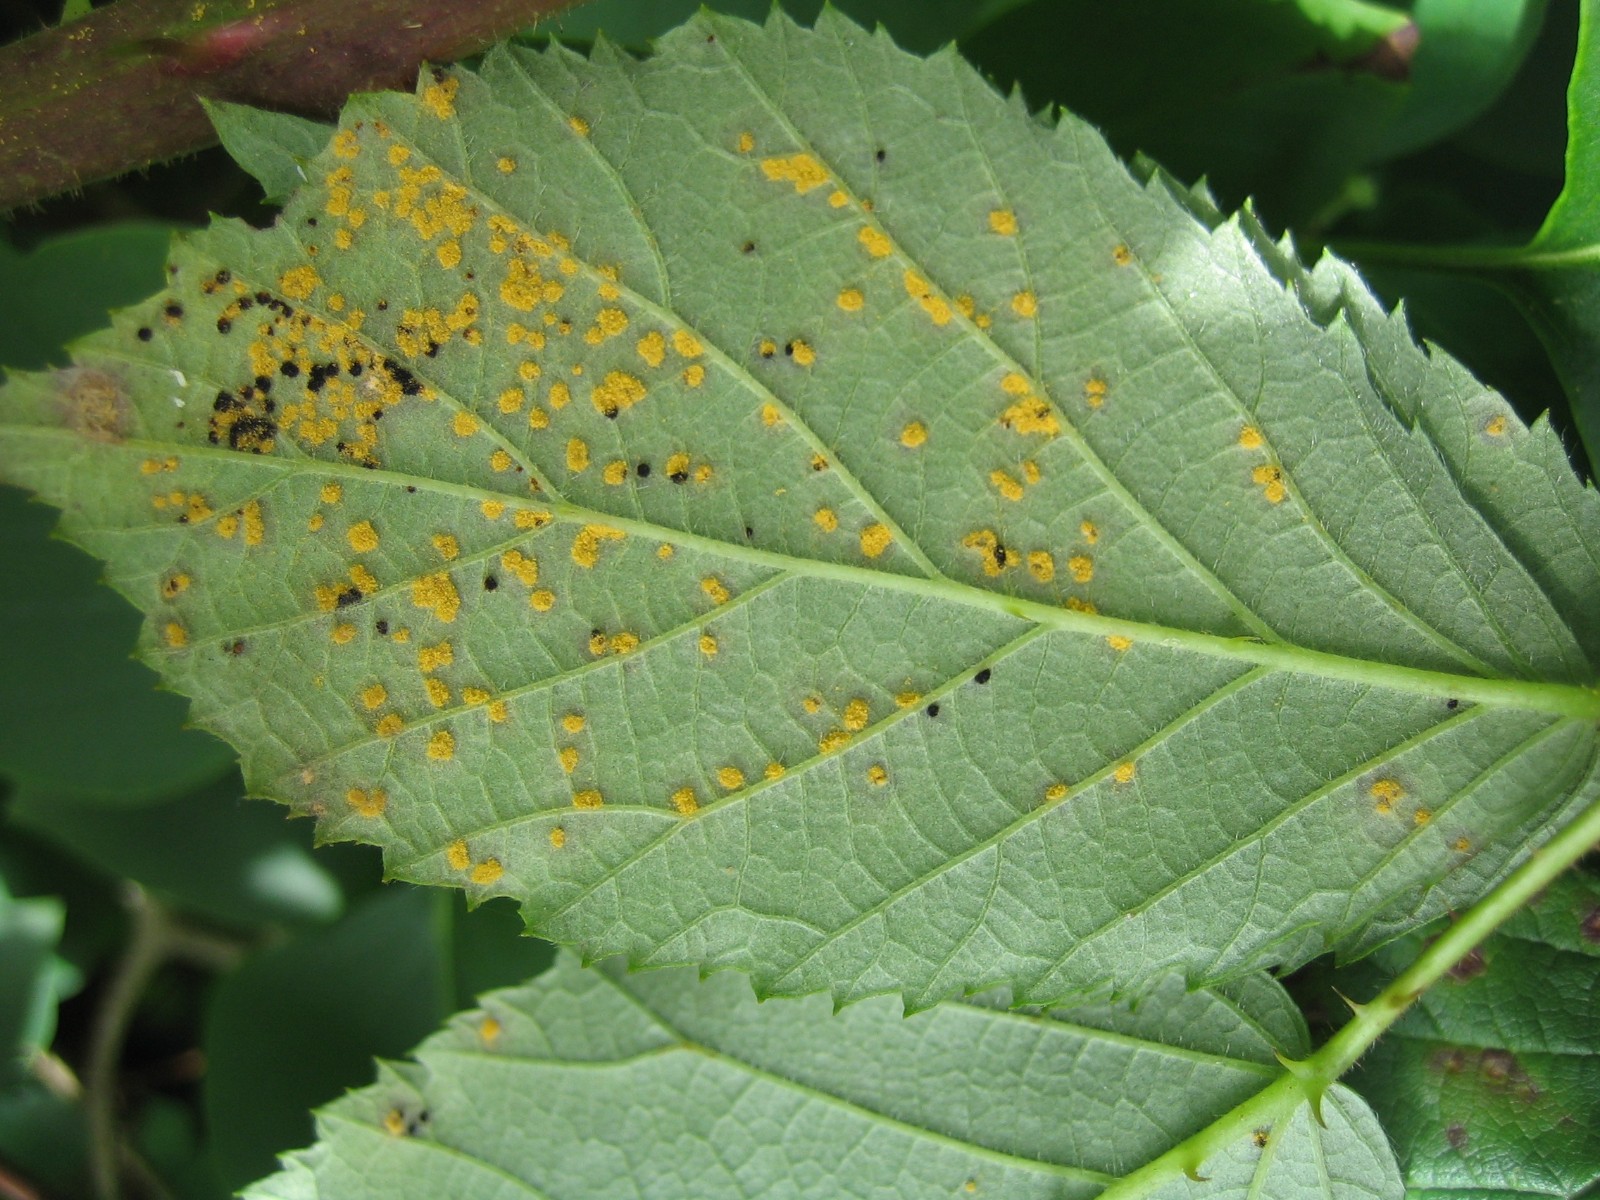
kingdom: Fungi
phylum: Basidiomycota
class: Pucciniomycetes
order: Pucciniales
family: Phragmidiaceae
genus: Phragmidium
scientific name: Phragmidium
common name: flercellerust
